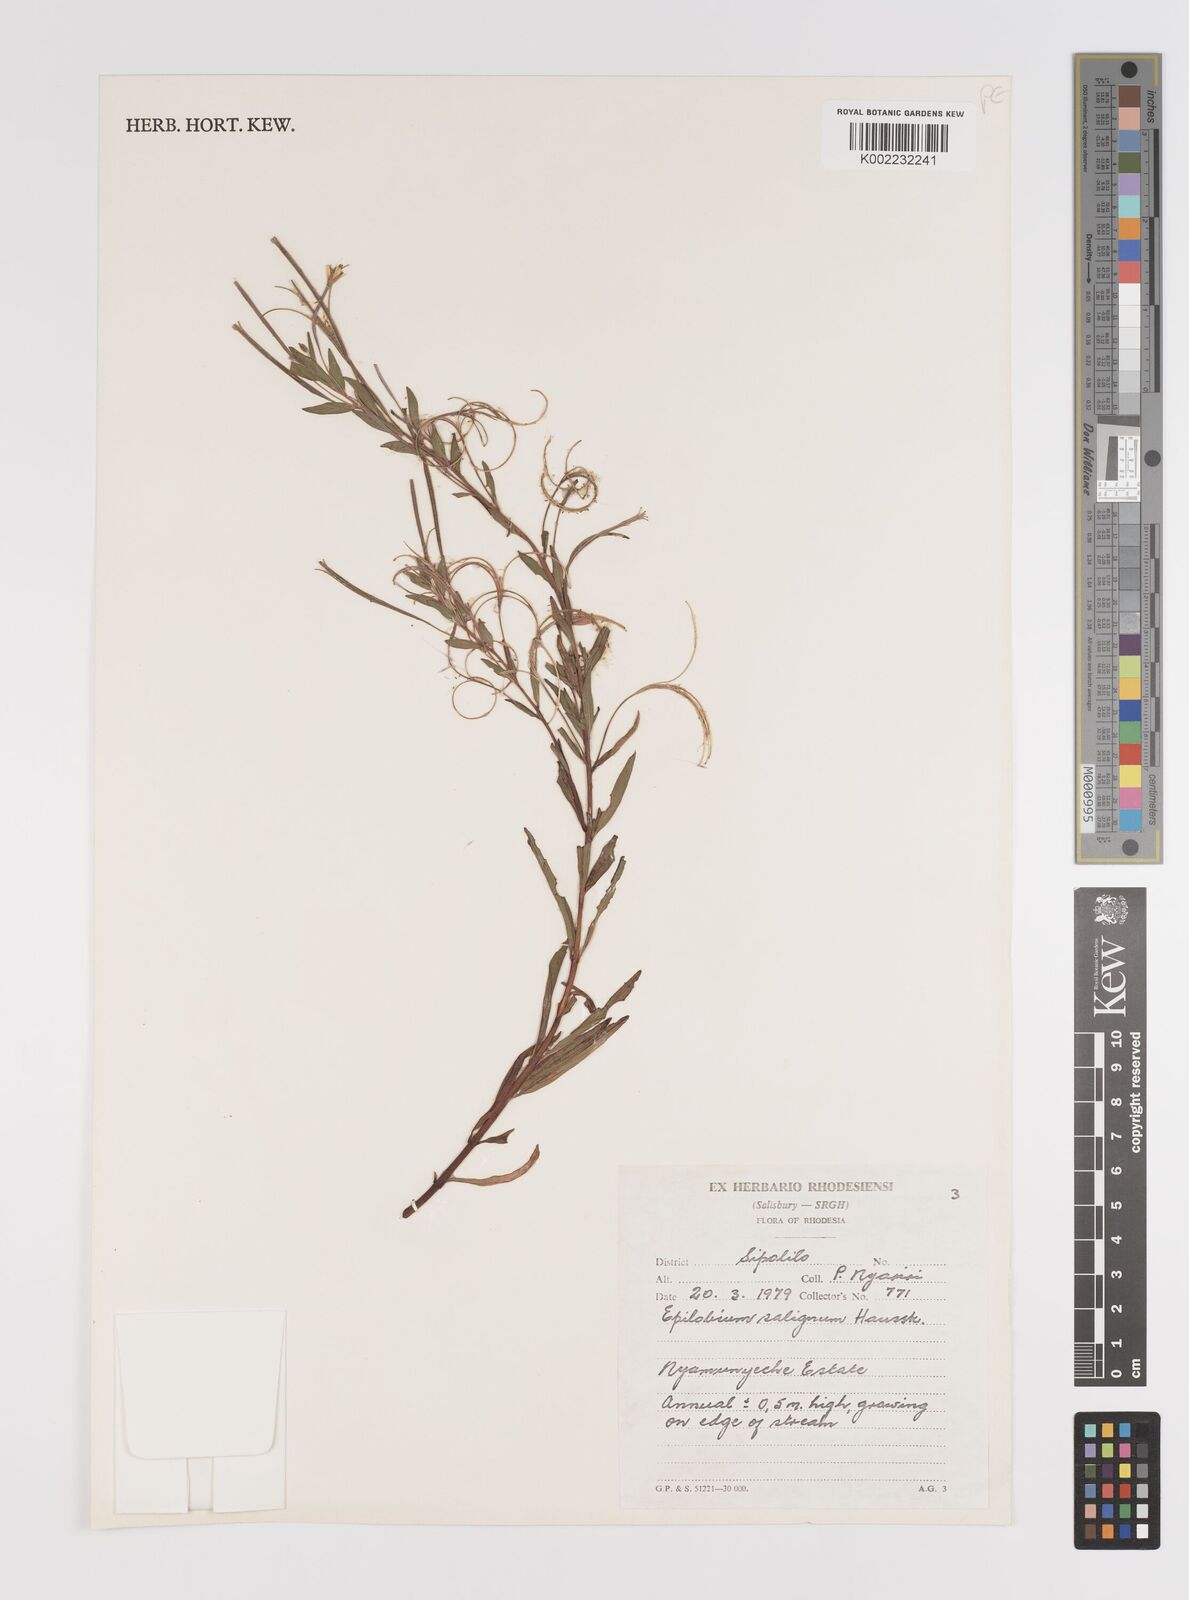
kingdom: Plantae
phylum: Tracheophyta
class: Magnoliopsida
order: Myrtales
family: Onagraceae
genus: Epilobium
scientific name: Epilobium salignum
